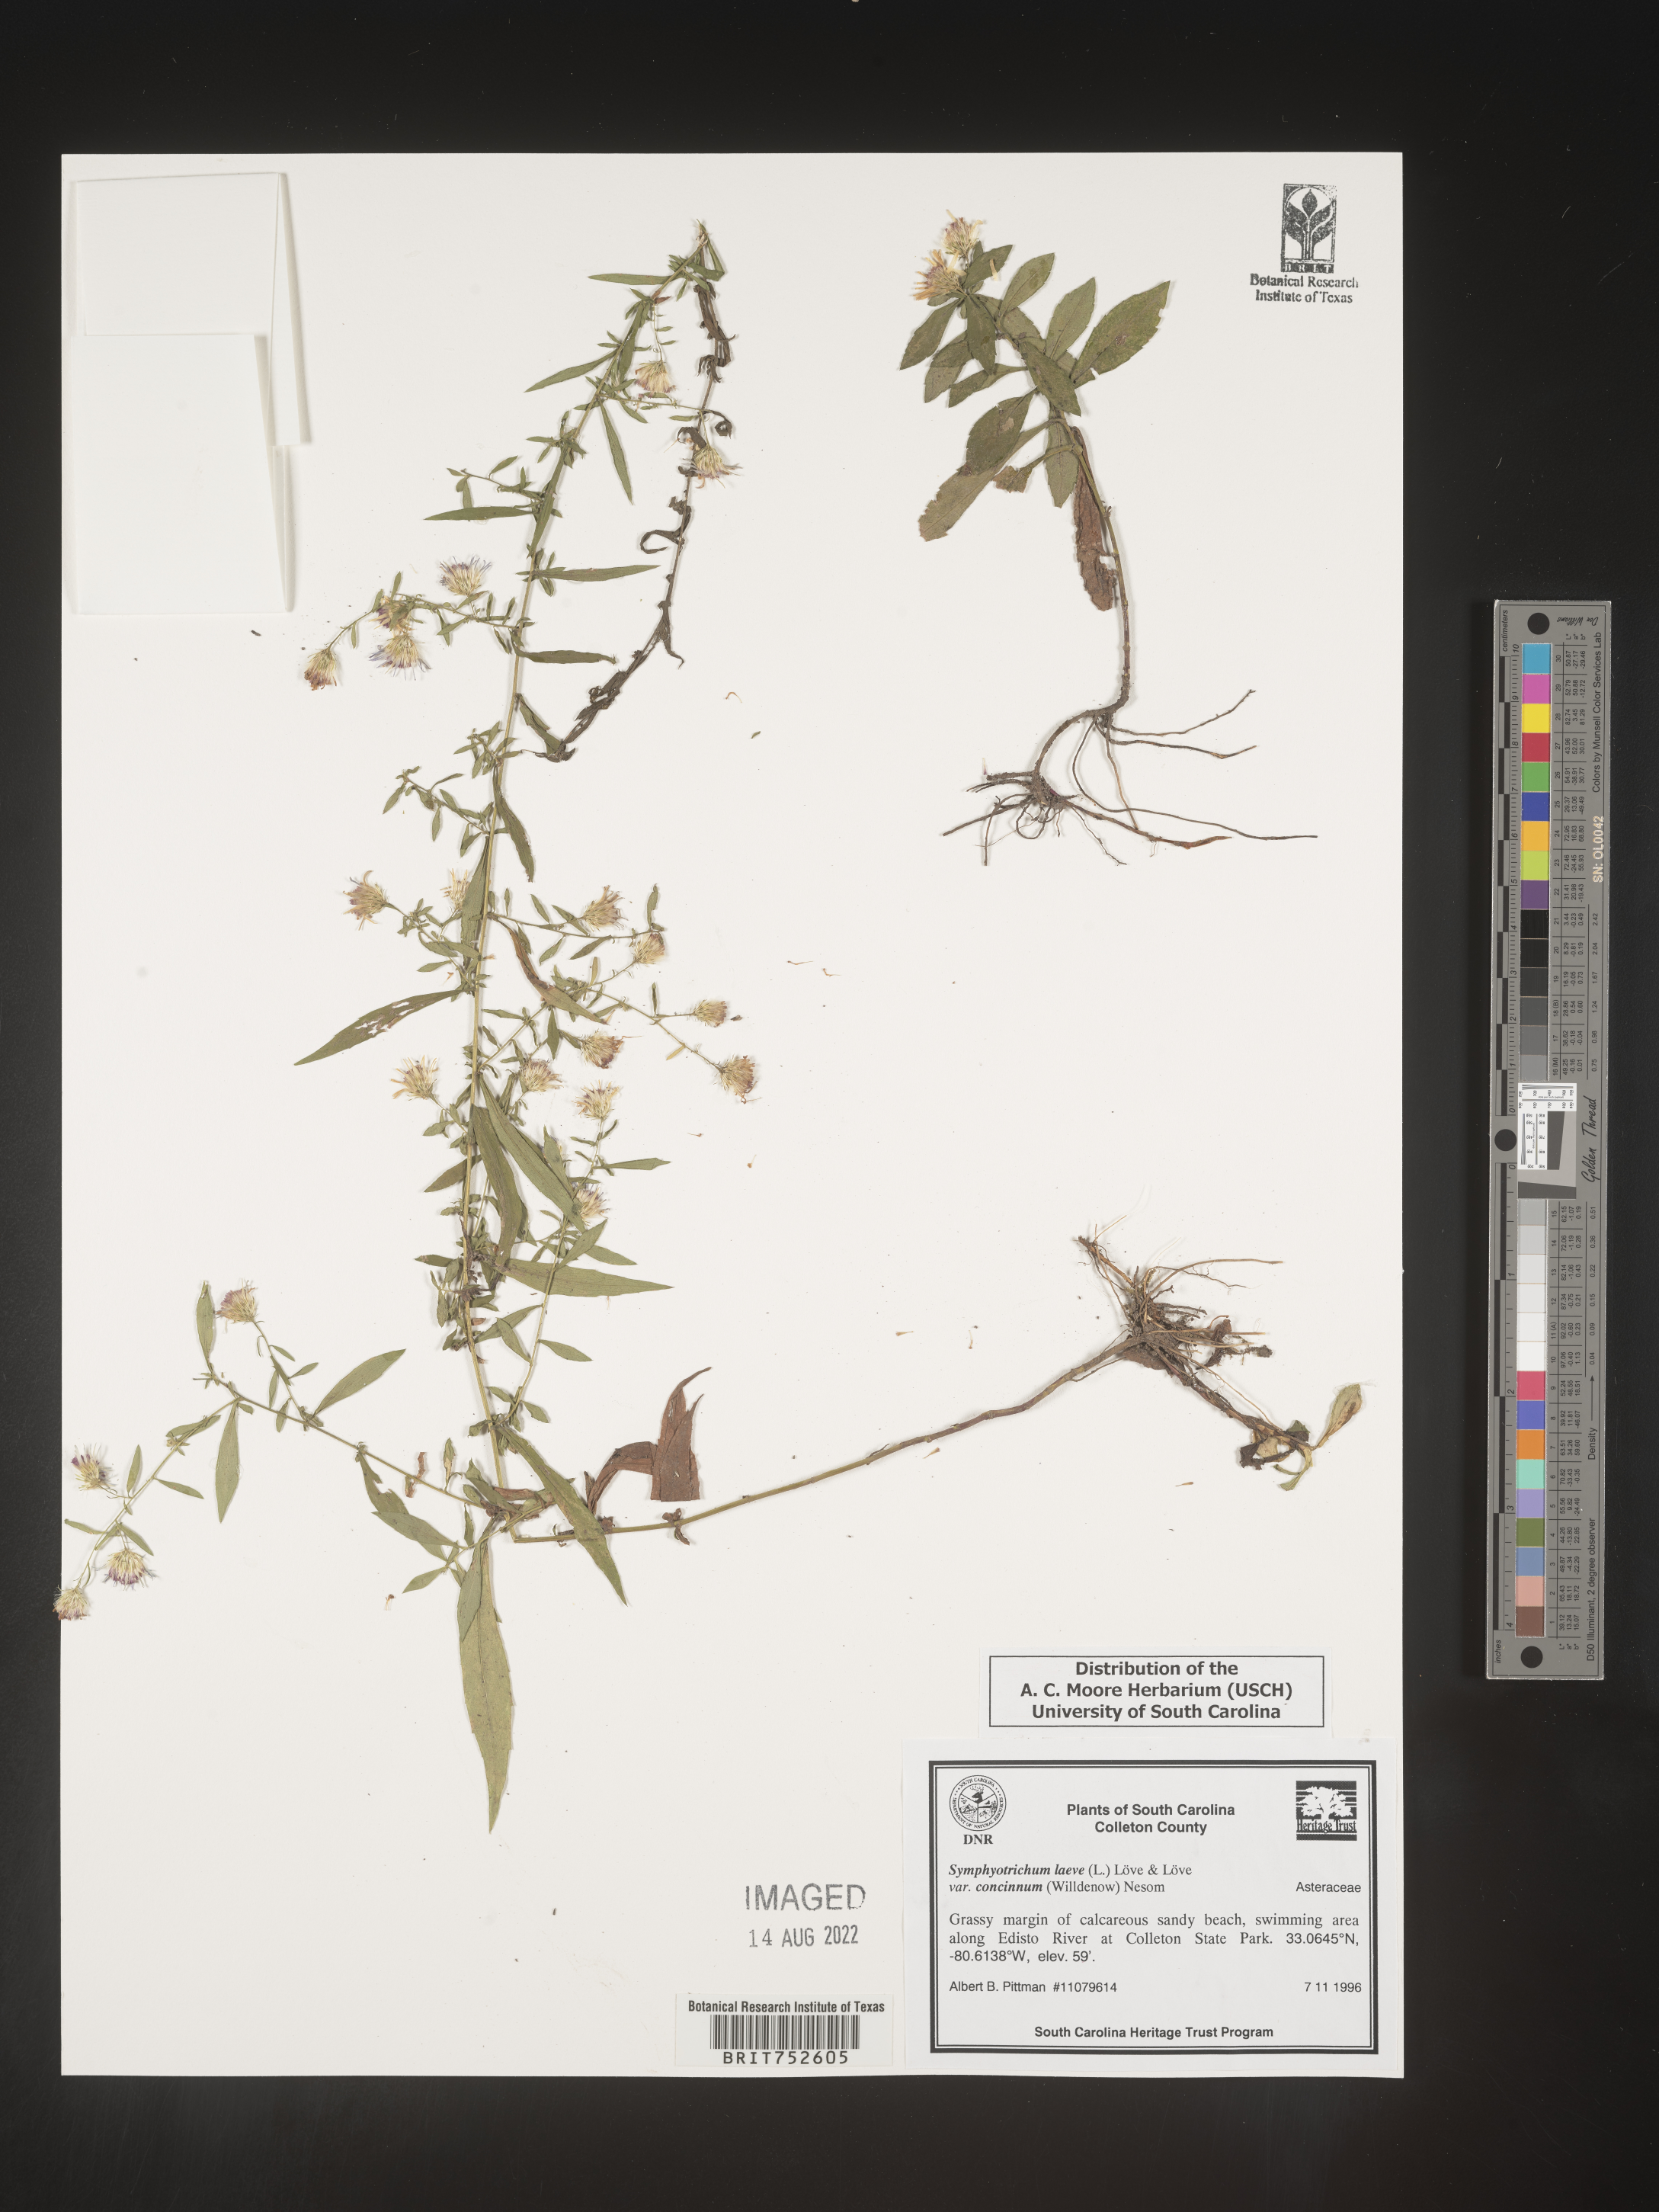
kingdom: Plantae
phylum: Tracheophyta
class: Magnoliopsida
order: Asterales
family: Asteraceae
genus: Symphyotrichum
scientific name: Symphyotrichum laeve
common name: Glaucous aster
